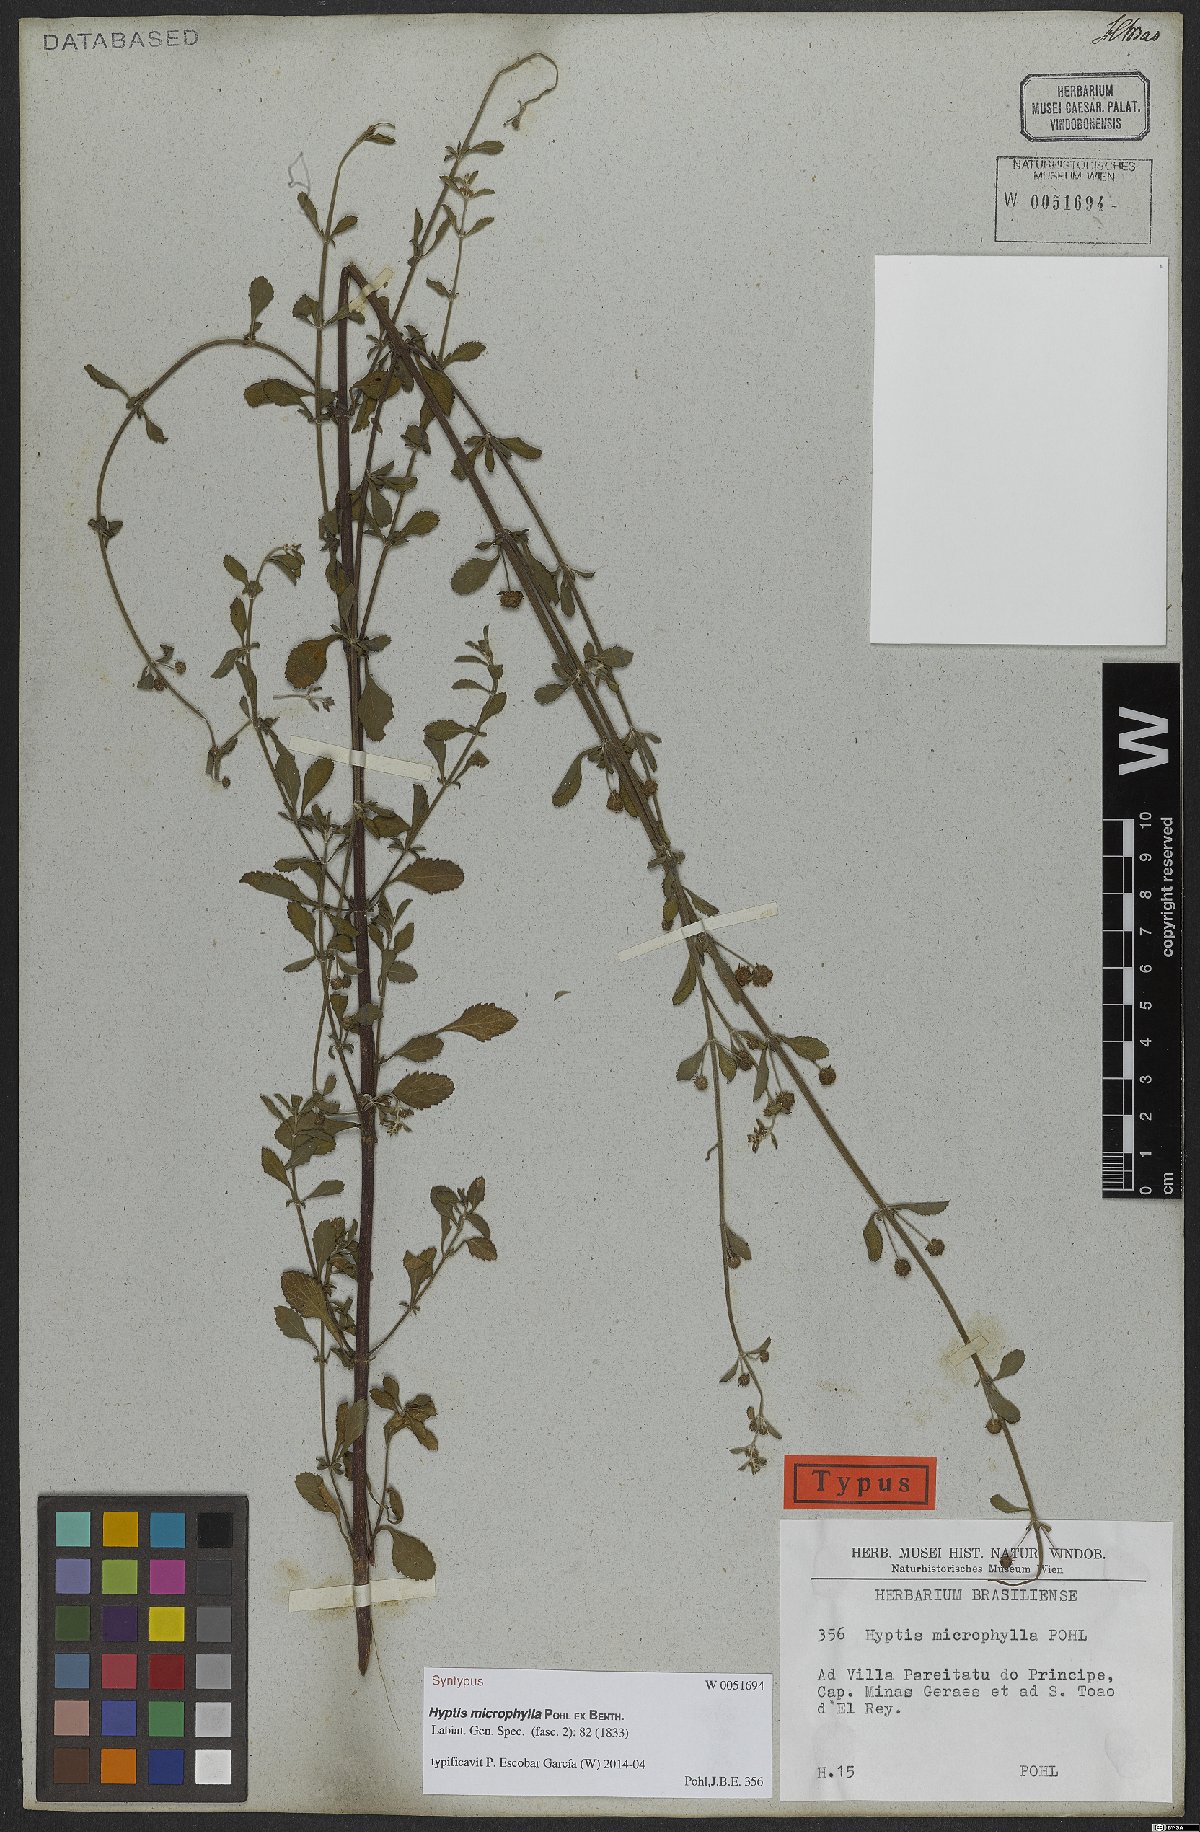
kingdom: Plantae
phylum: Tracheophyta
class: Magnoliopsida
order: Lamiales
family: Lamiaceae
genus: Hyptis
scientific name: Hyptis microphylla
